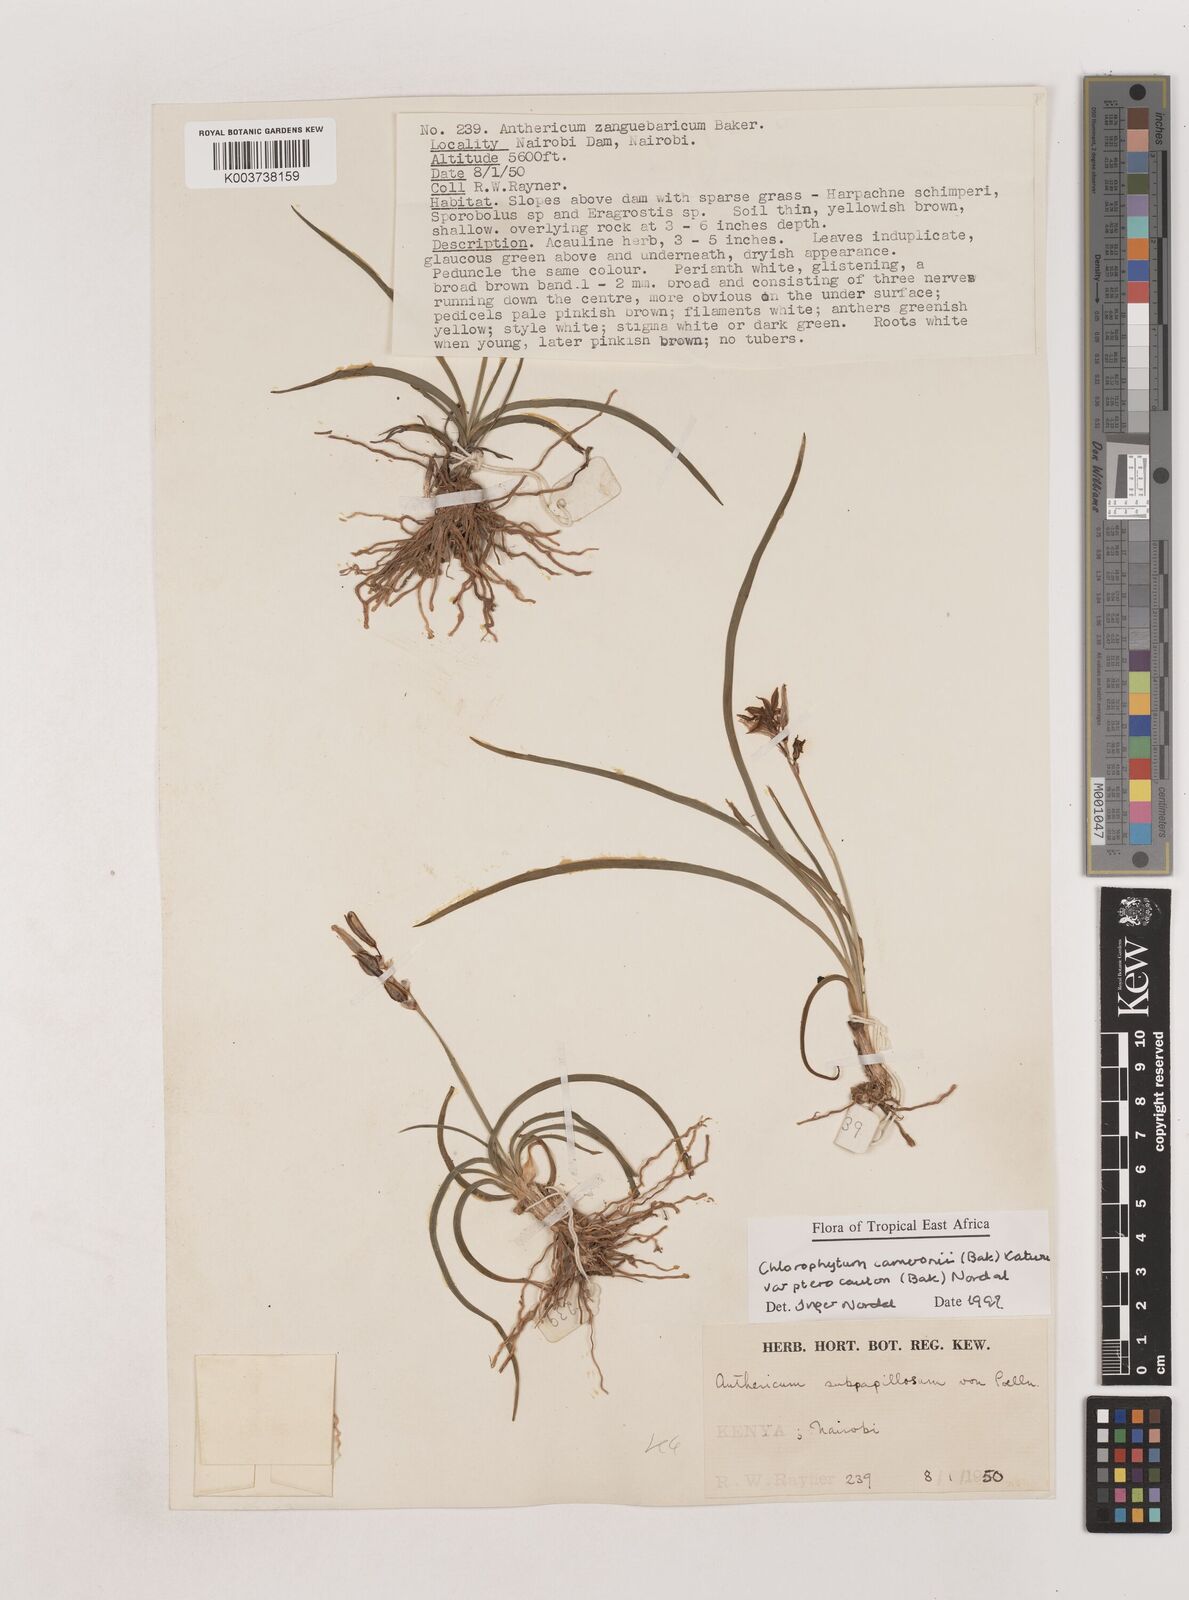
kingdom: Plantae
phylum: Tracheophyta
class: Liliopsida
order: Asparagales
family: Asparagaceae
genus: Chlorophytum
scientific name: Chlorophytum cameronii
